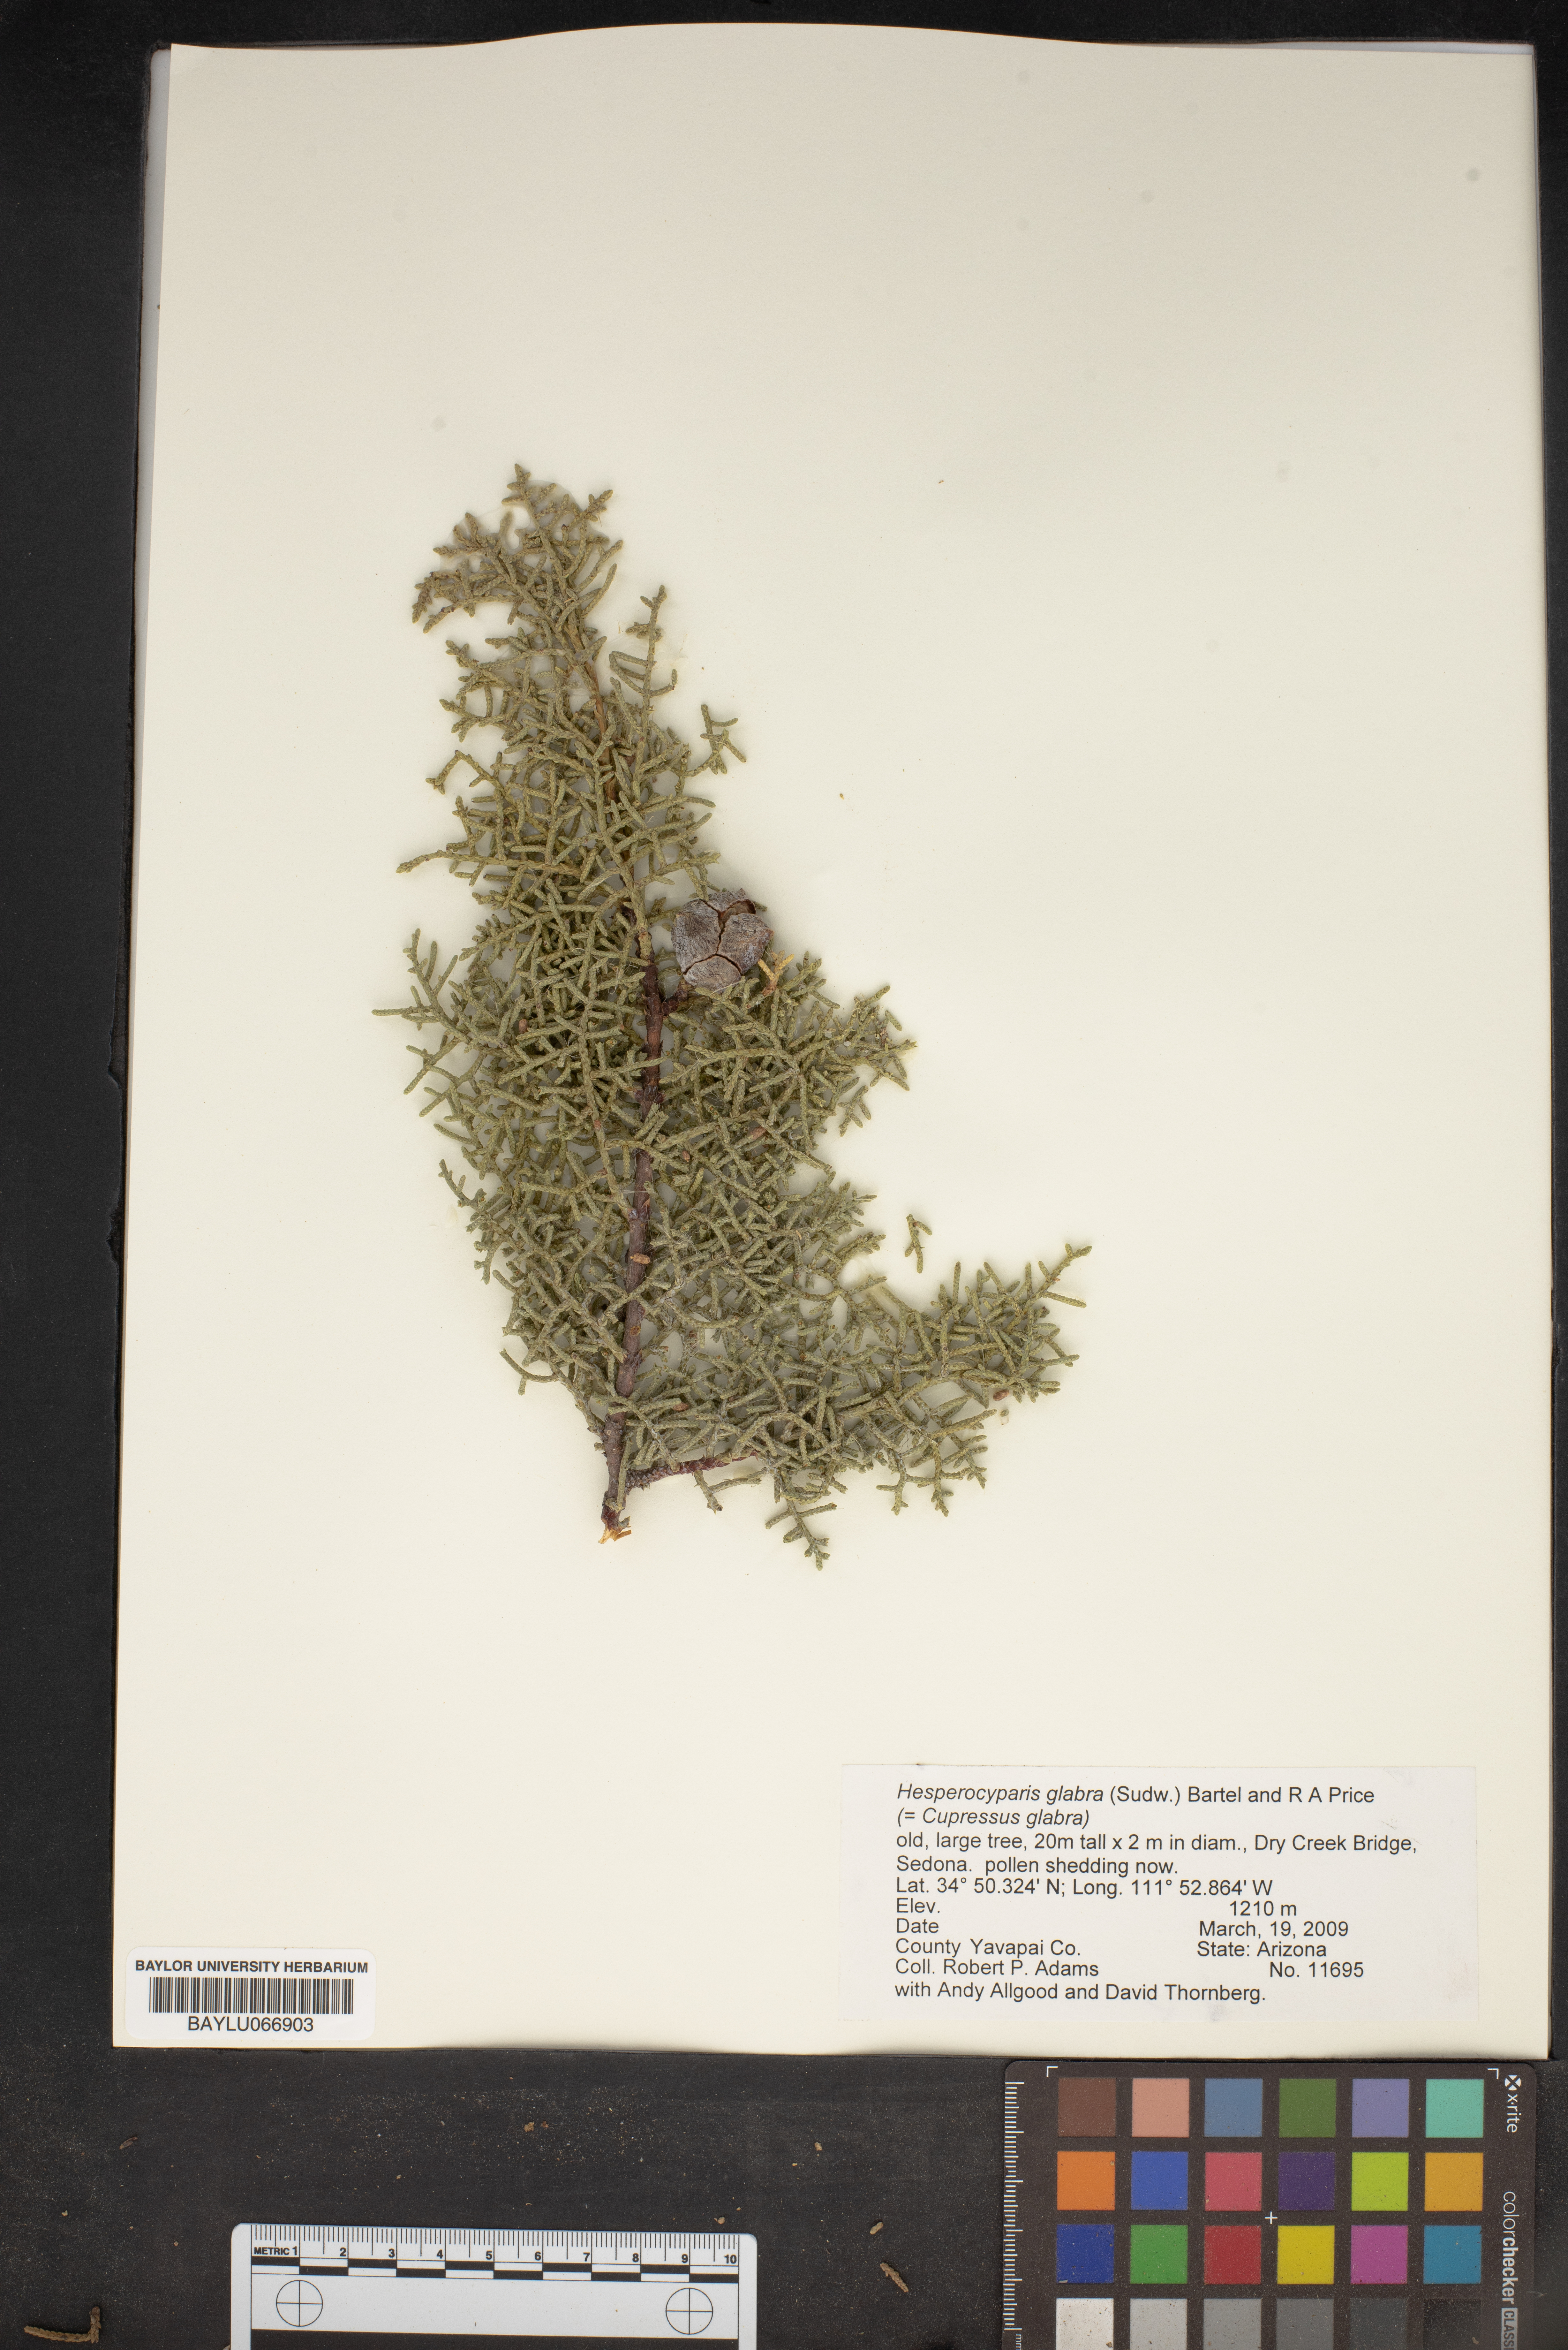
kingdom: Plantae
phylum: Tracheophyta
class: Pinopsida
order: Pinales
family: Cupressaceae
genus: Cupressus
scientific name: Cupressus arizonica
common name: Arizona cypress
